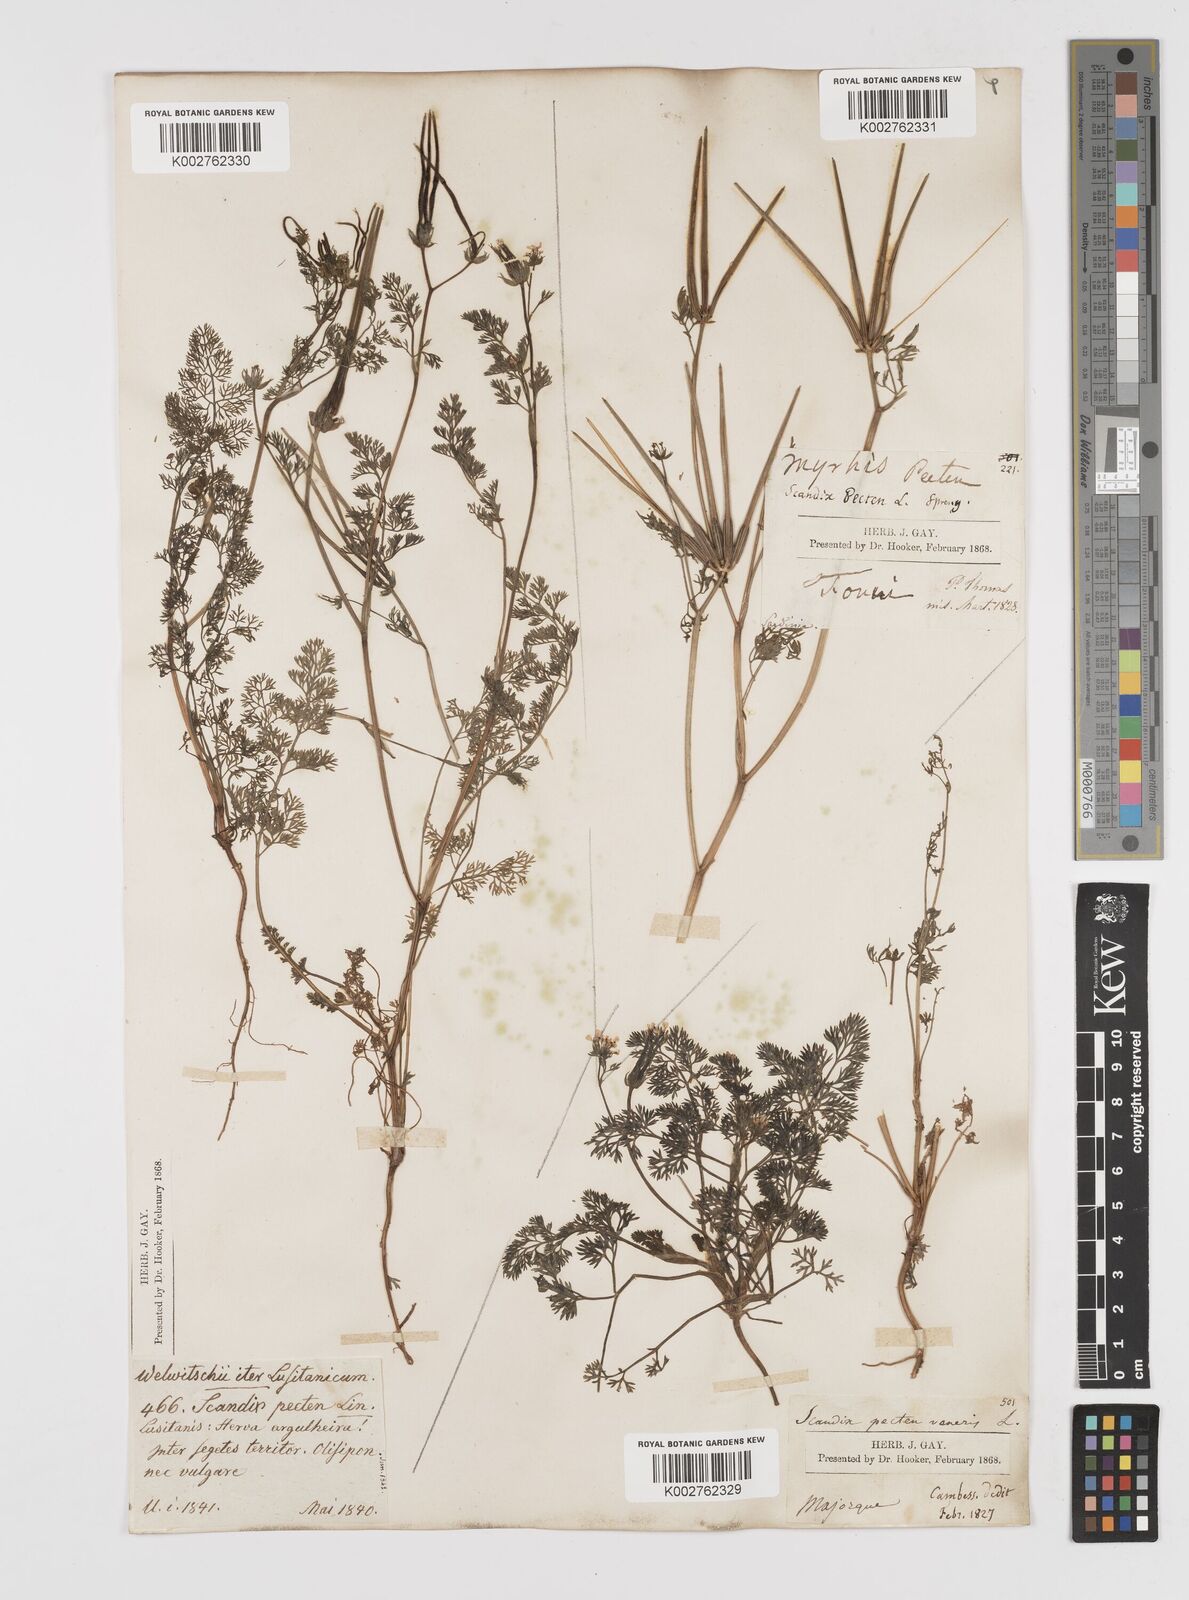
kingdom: Plantae
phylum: Tracheophyta
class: Magnoliopsida
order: Apiales
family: Apiaceae
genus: Scandix
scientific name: Scandix pecten-veneris
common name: Shepherd's-needle
